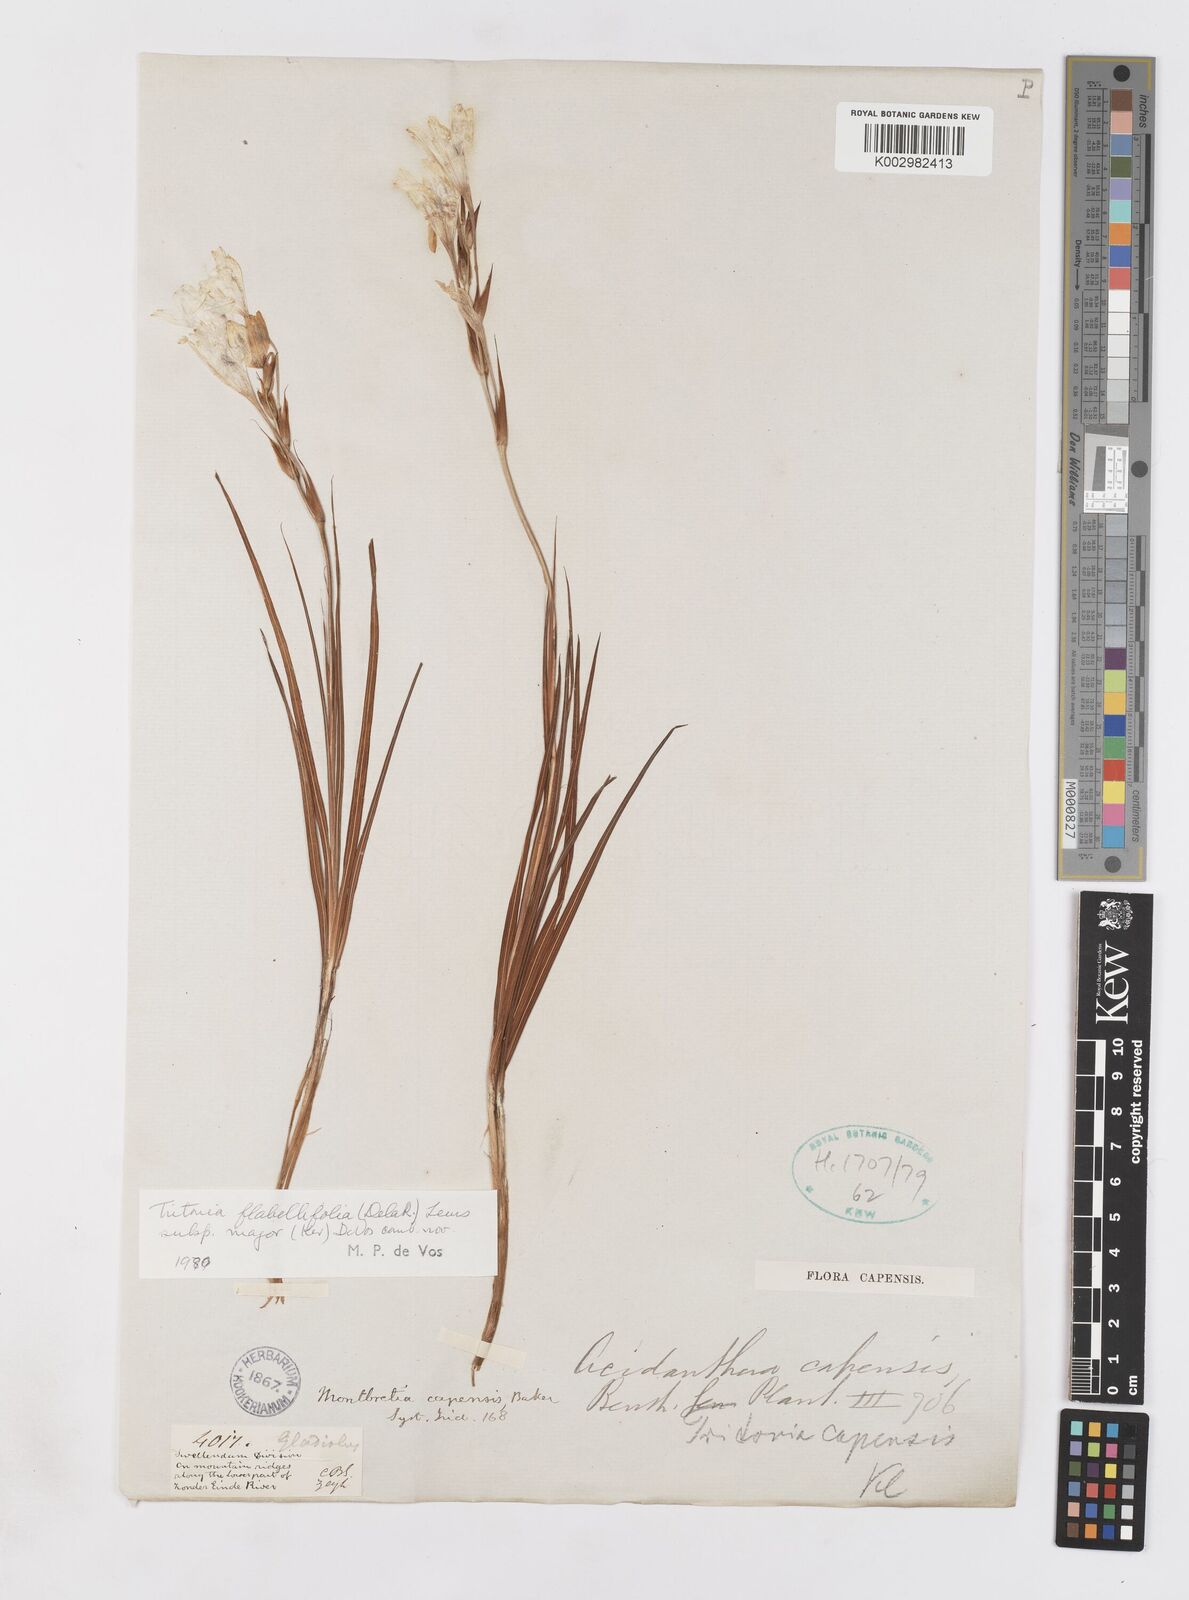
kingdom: Plantae
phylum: Tracheophyta
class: Liliopsida
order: Asparagales
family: Iridaceae
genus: Tritonia
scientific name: Tritonia
